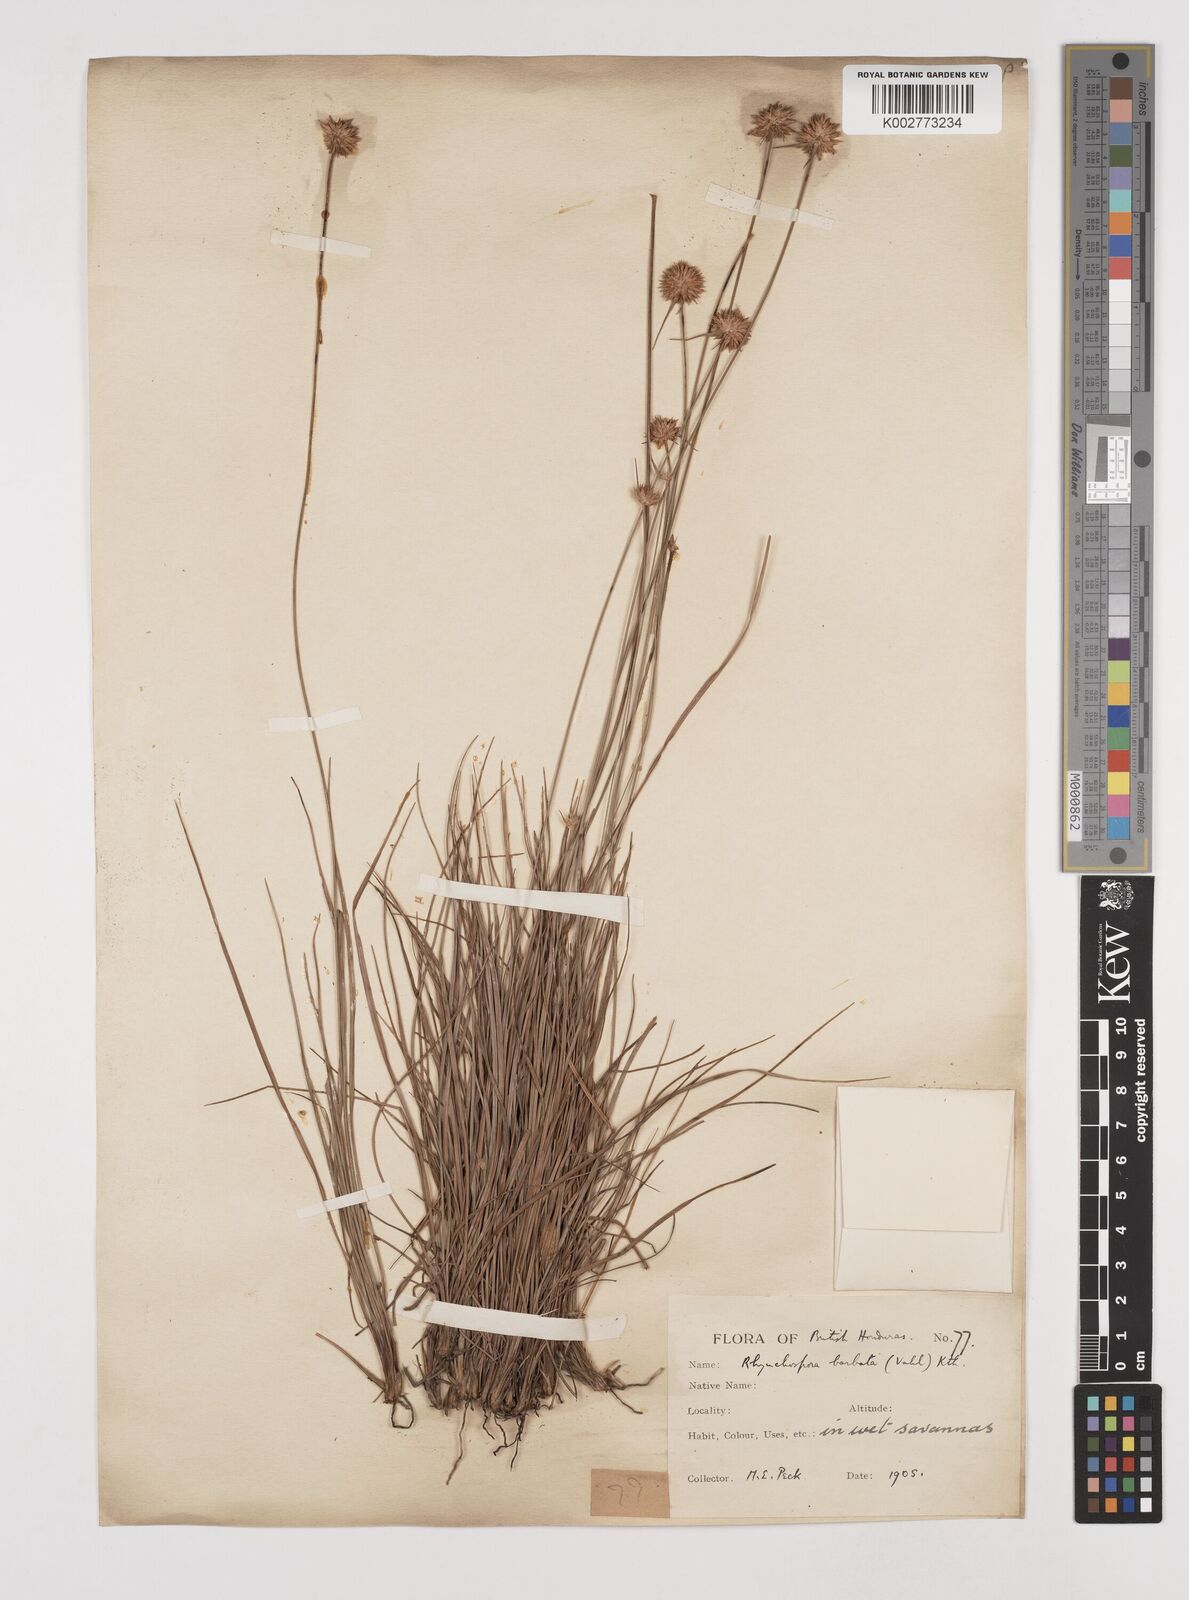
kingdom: Plantae
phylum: Tracheophyta
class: Liliopsida
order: Poales
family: Cyperaceae
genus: Rhynchospora
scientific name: Rhynchospora barbata
